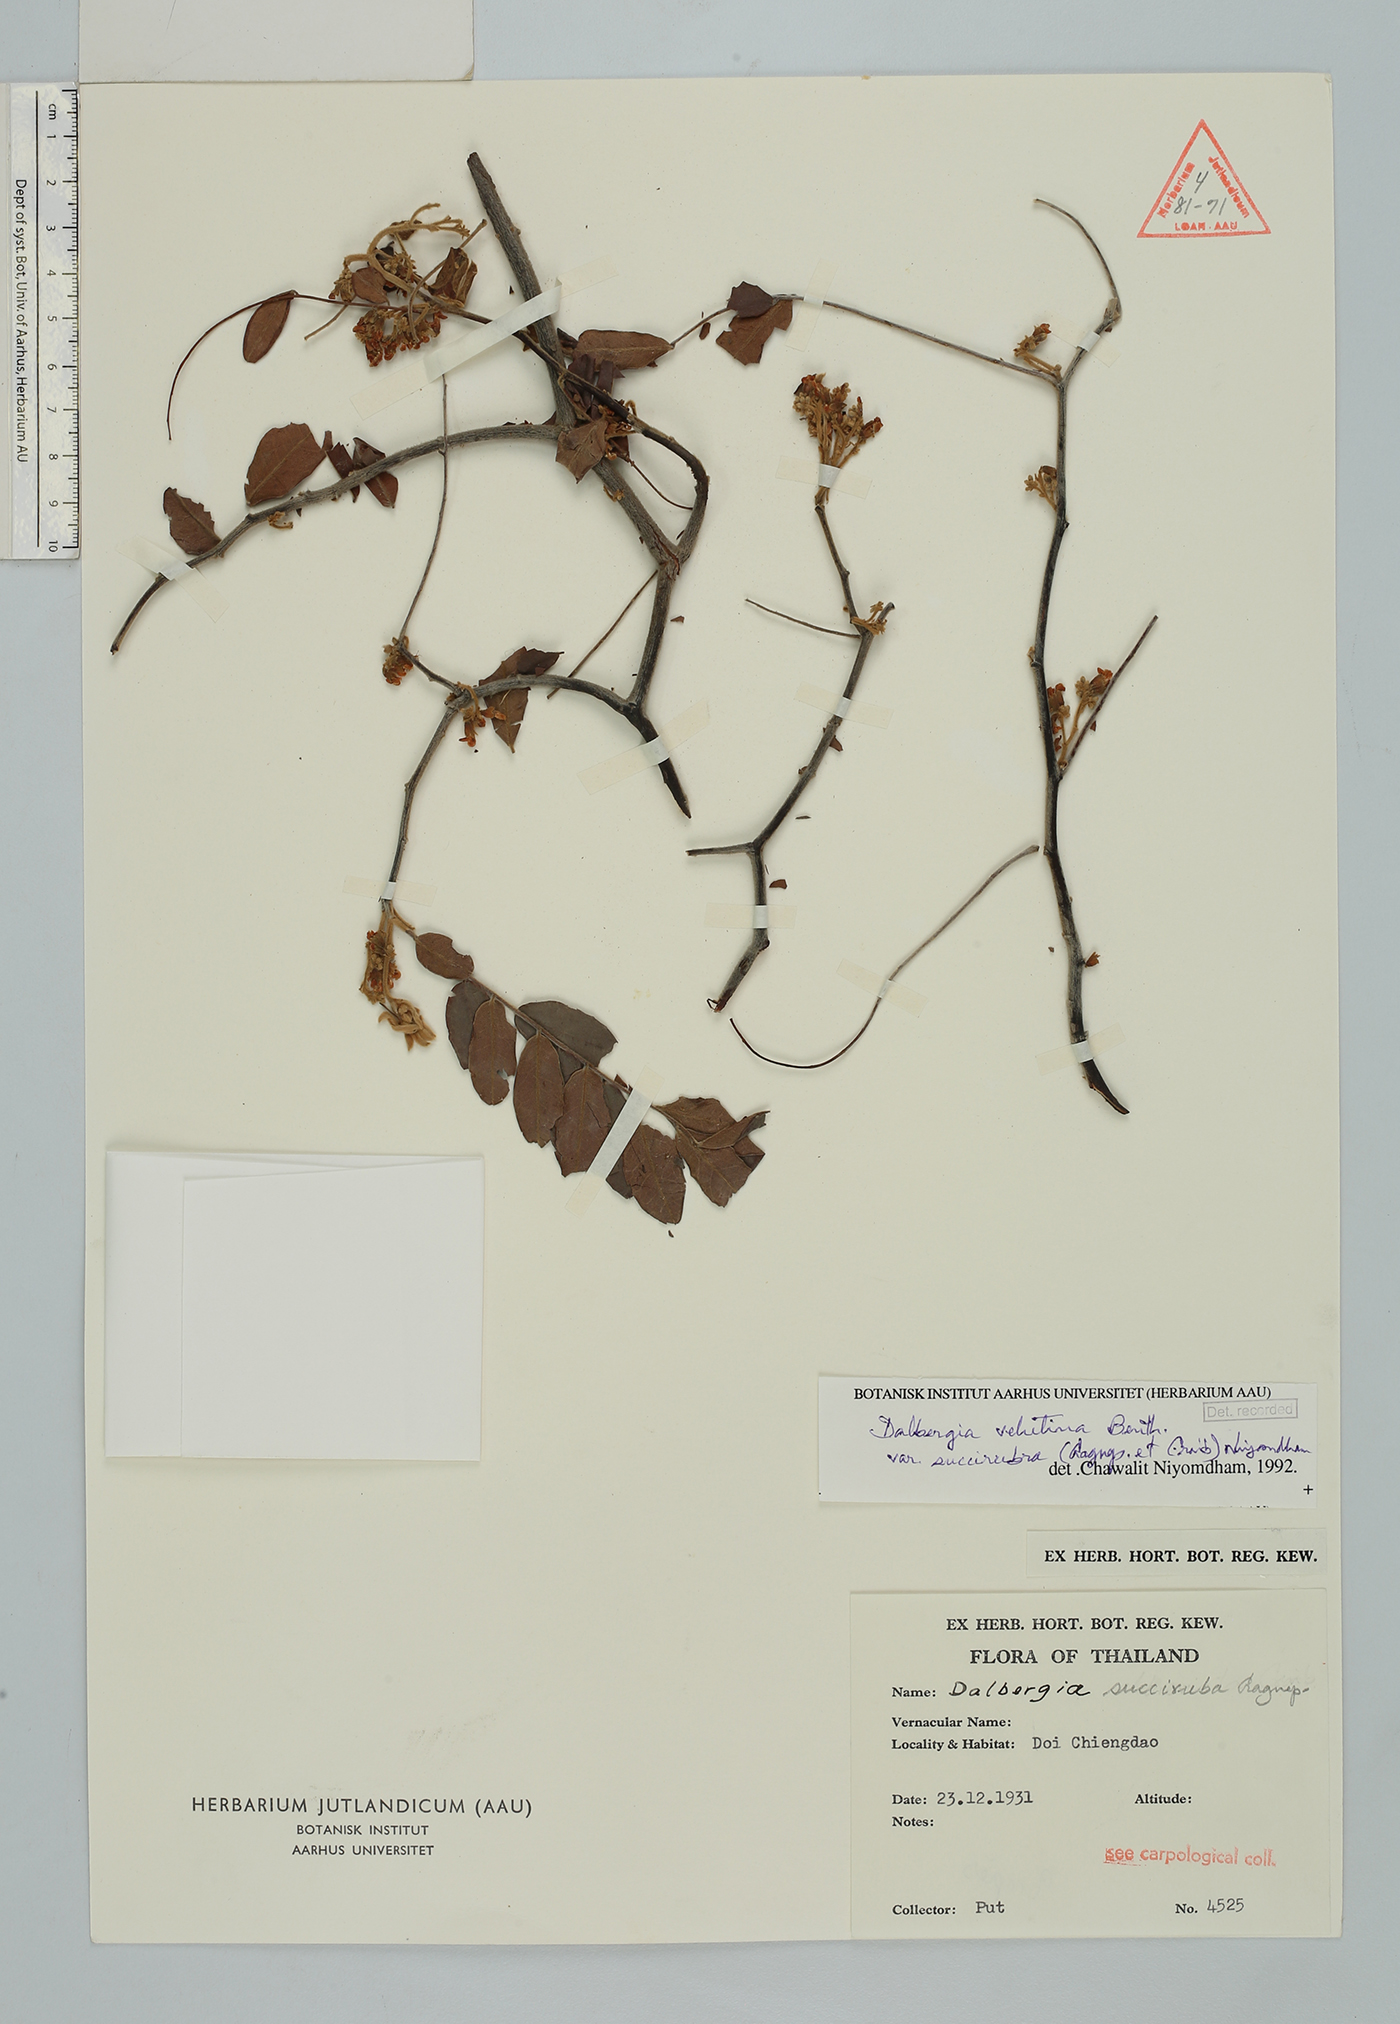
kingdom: Plantae
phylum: Tracheophyta
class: Magnoliopsida
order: Fabales
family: Fabaceae
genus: Dalbergia
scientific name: Dalbergia velutina
